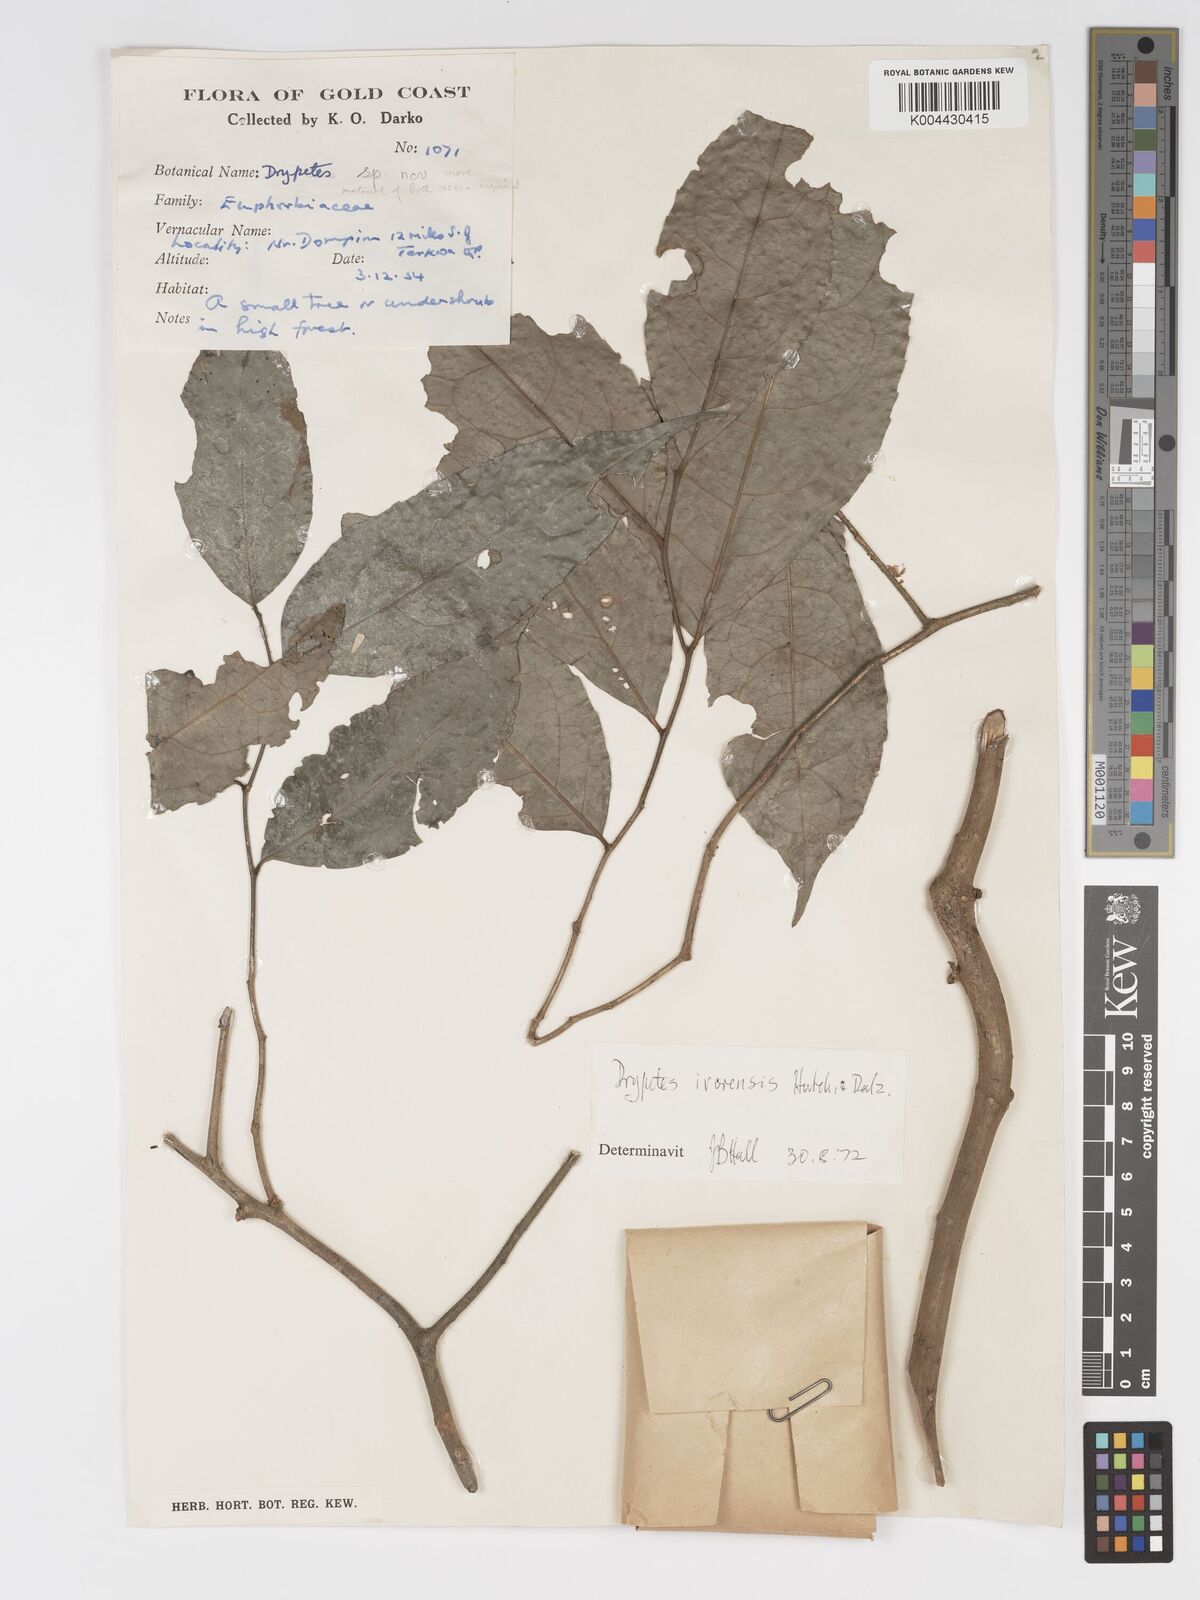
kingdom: Plantae
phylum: Tracheophyta
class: Magnoliopsida
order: Malpighiales
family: Putranjivaceae
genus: Drypetes
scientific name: Drypetes ivorensis
